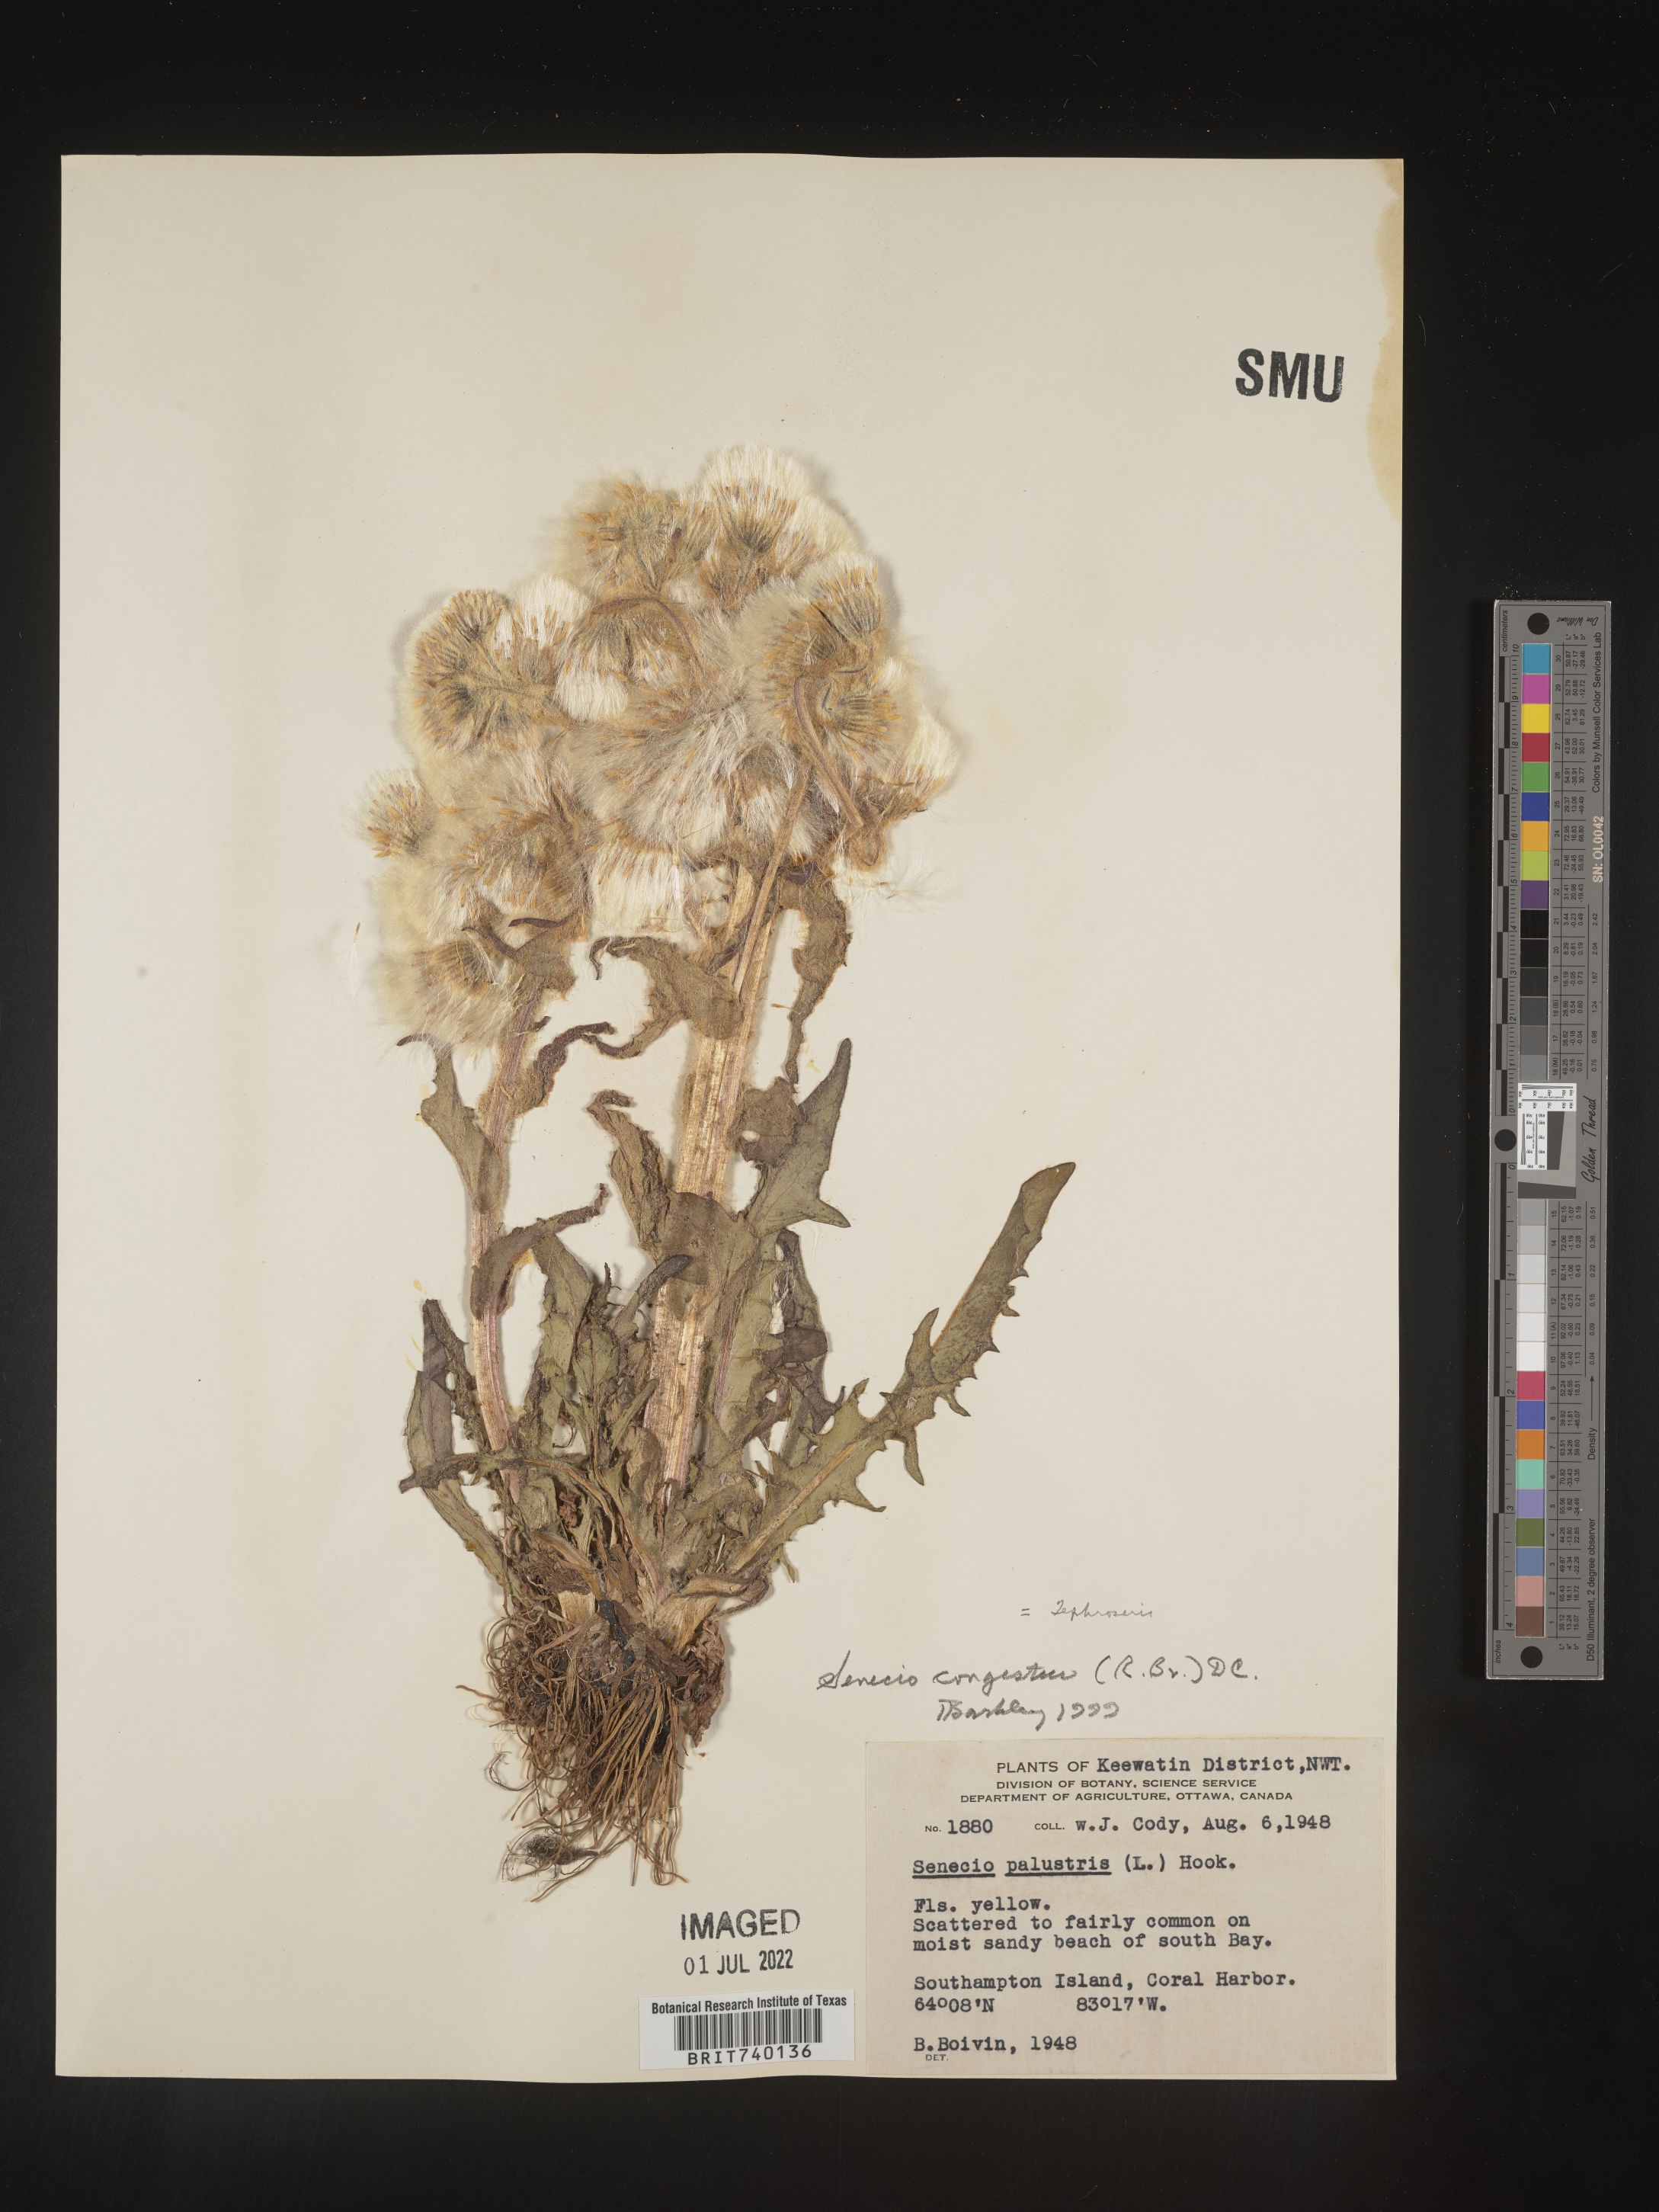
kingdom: Plantae
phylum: Tracheophyta
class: Magnoliopsida
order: Asterales
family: Asteraceae
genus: Tephroseris
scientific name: Tephroseris palustris
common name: Marsh fleawort
